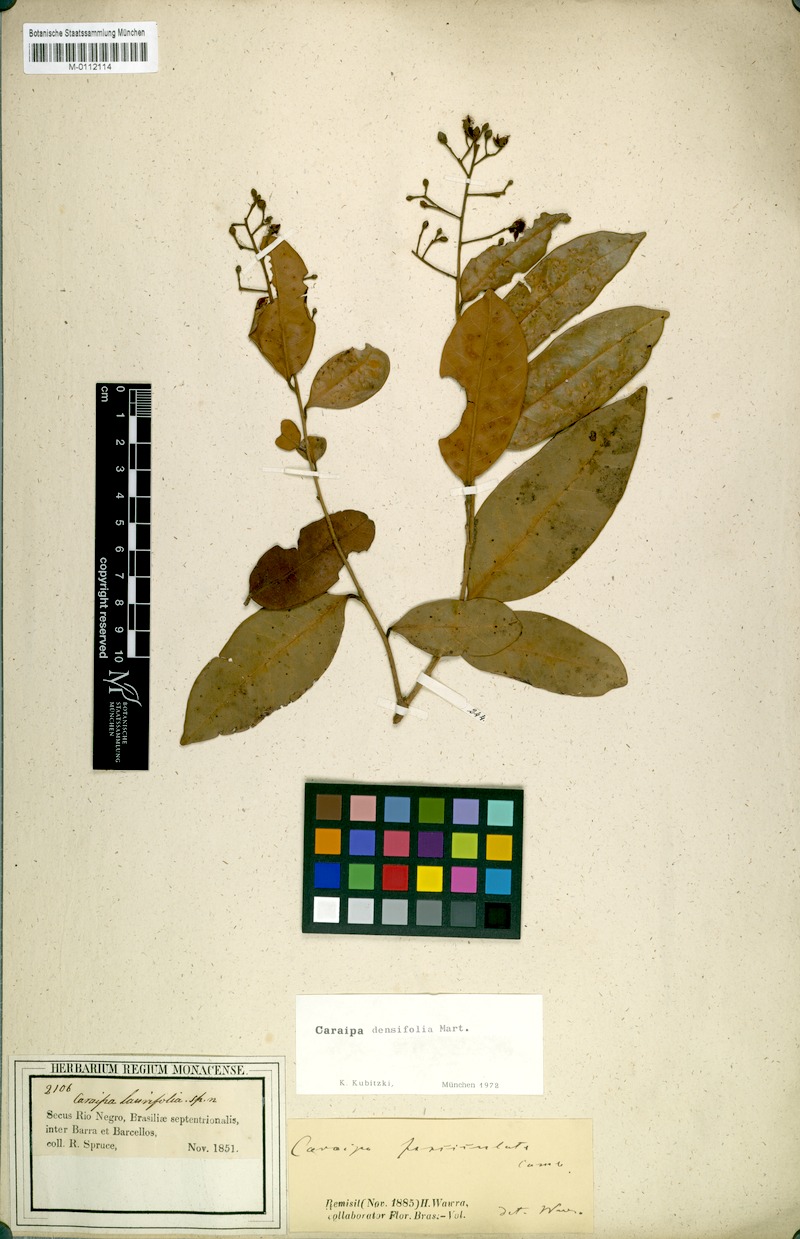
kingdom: Plantae
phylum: Tracheophyta
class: Magnoliopsida
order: Malpighiales
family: Calophyllaceae
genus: Caraipa
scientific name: Caraipa densifolia
